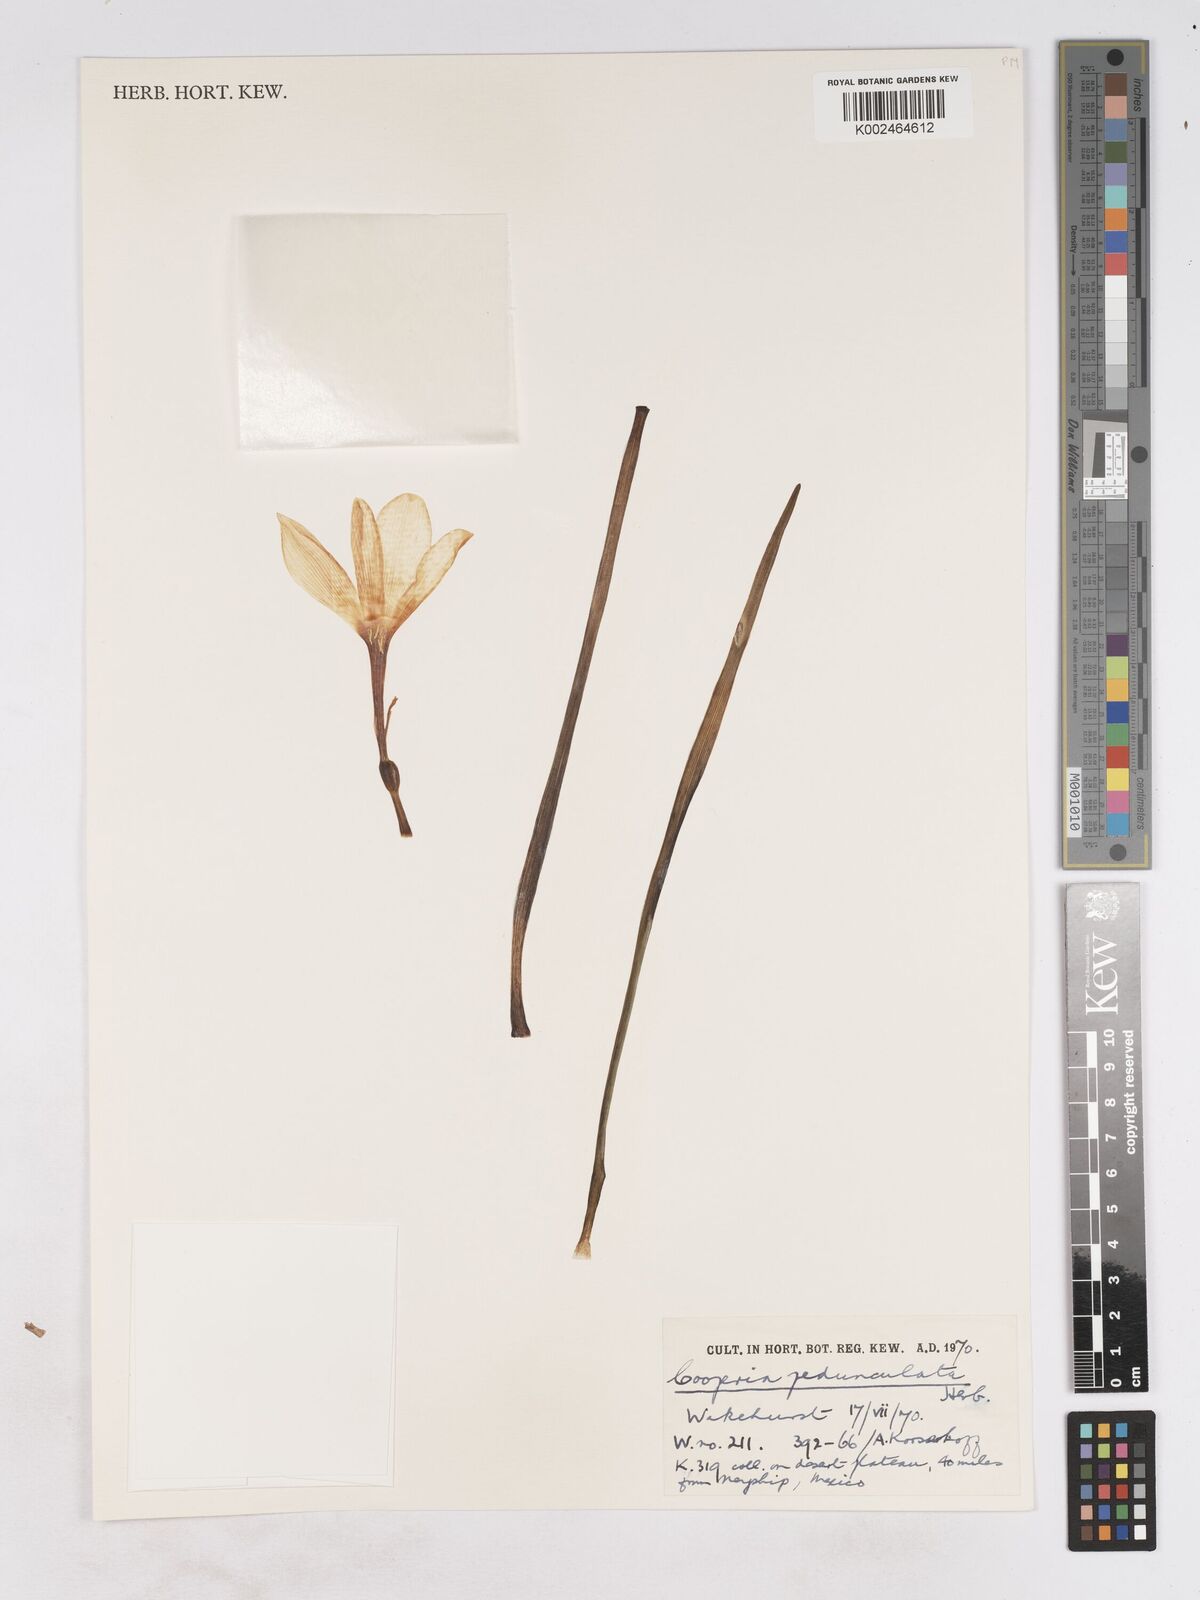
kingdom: Plantae
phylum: Tracheophyta
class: Liliopsida
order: Asparagales
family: Amaryllidaceae
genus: Zephyranthes
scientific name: Zephyranthes drummondii
